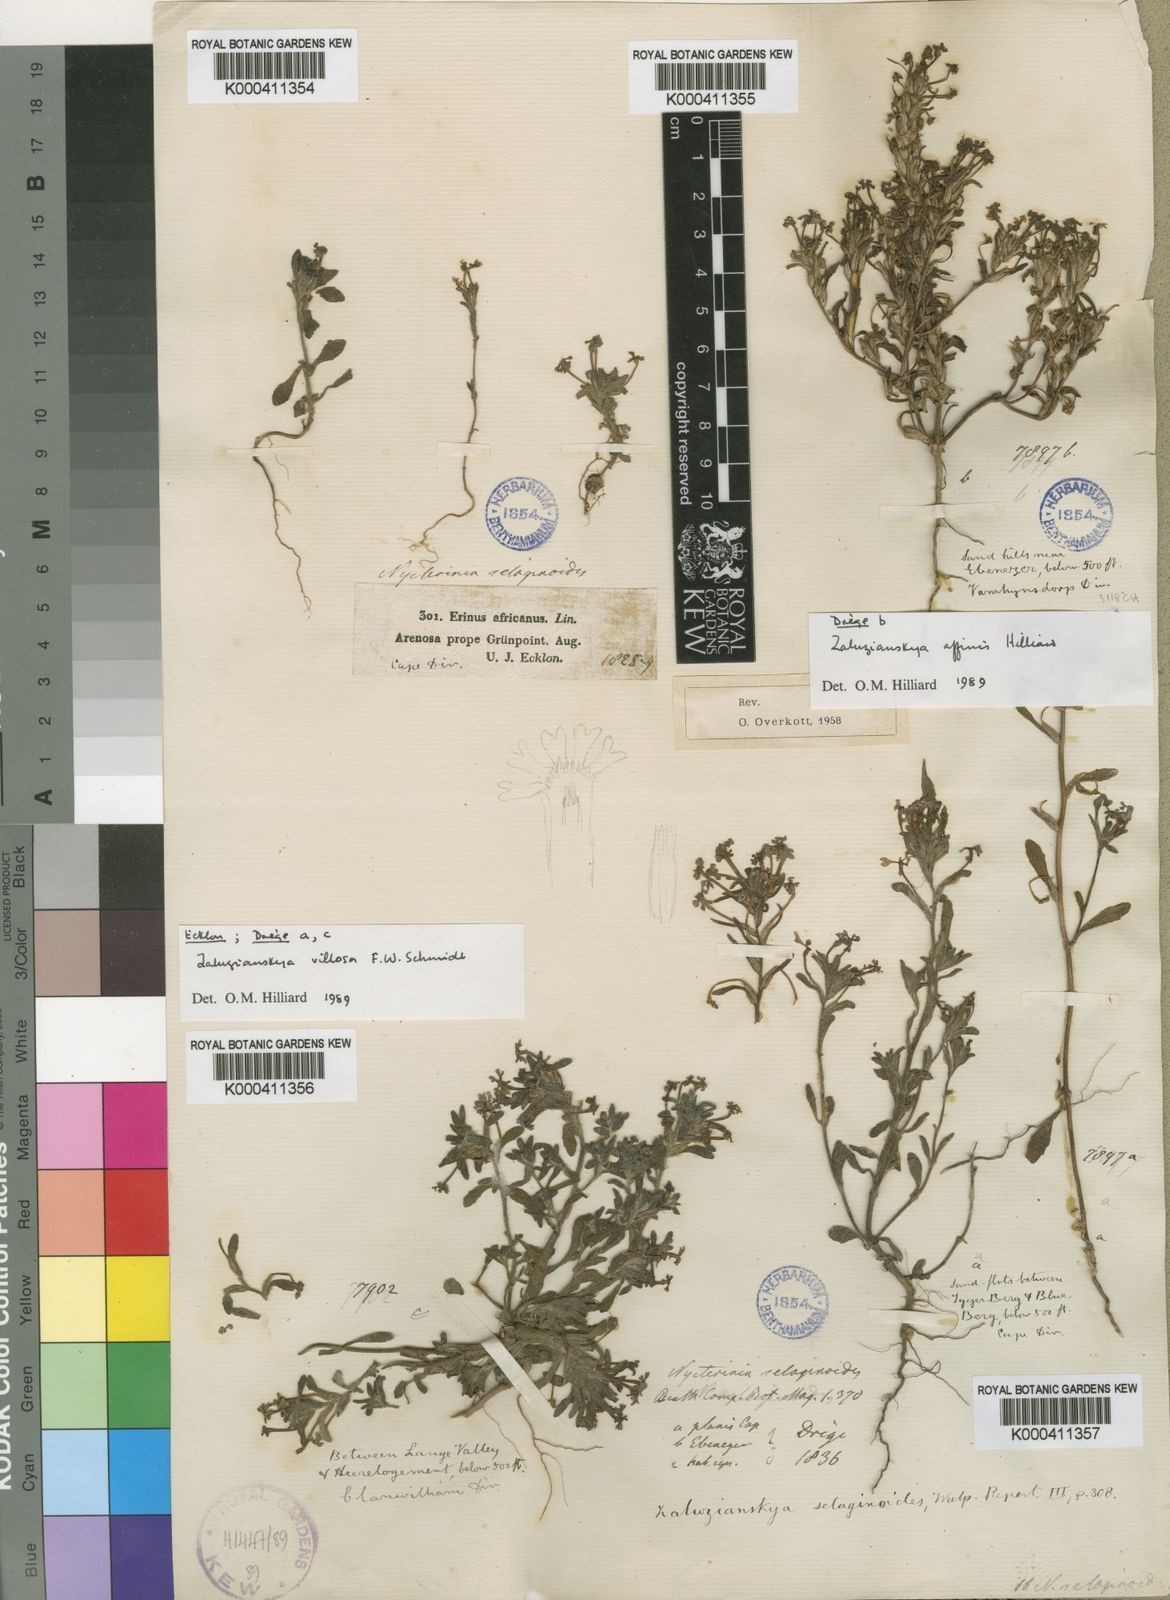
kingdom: Plantae
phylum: Tracheophyta
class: Magnoliopsida
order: Lamiales
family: Scrophulariaceae
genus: Zaluzianskya
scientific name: Zaluzianskya villosa
